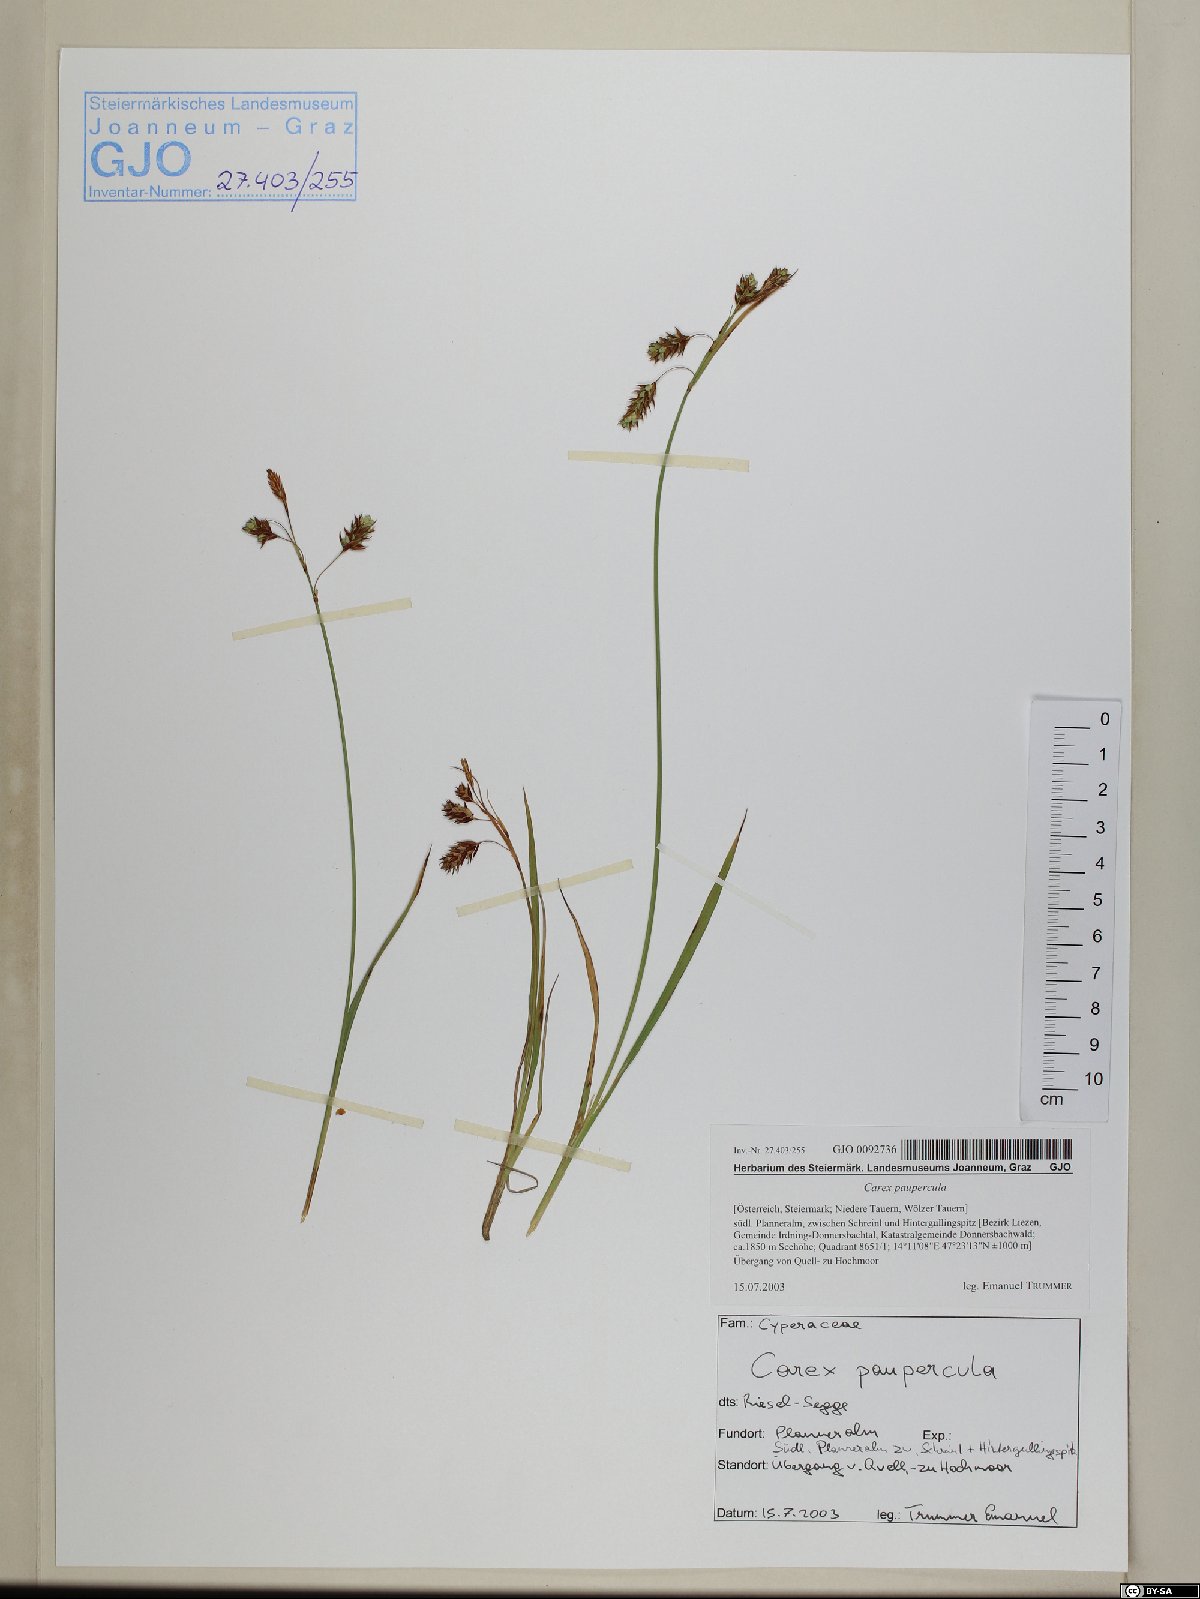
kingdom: Plantae
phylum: Tracheophyta
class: Liliopsida
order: Poales
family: Cyperaceae
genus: Carex
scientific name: Carex magellanica
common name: Bog sedge
